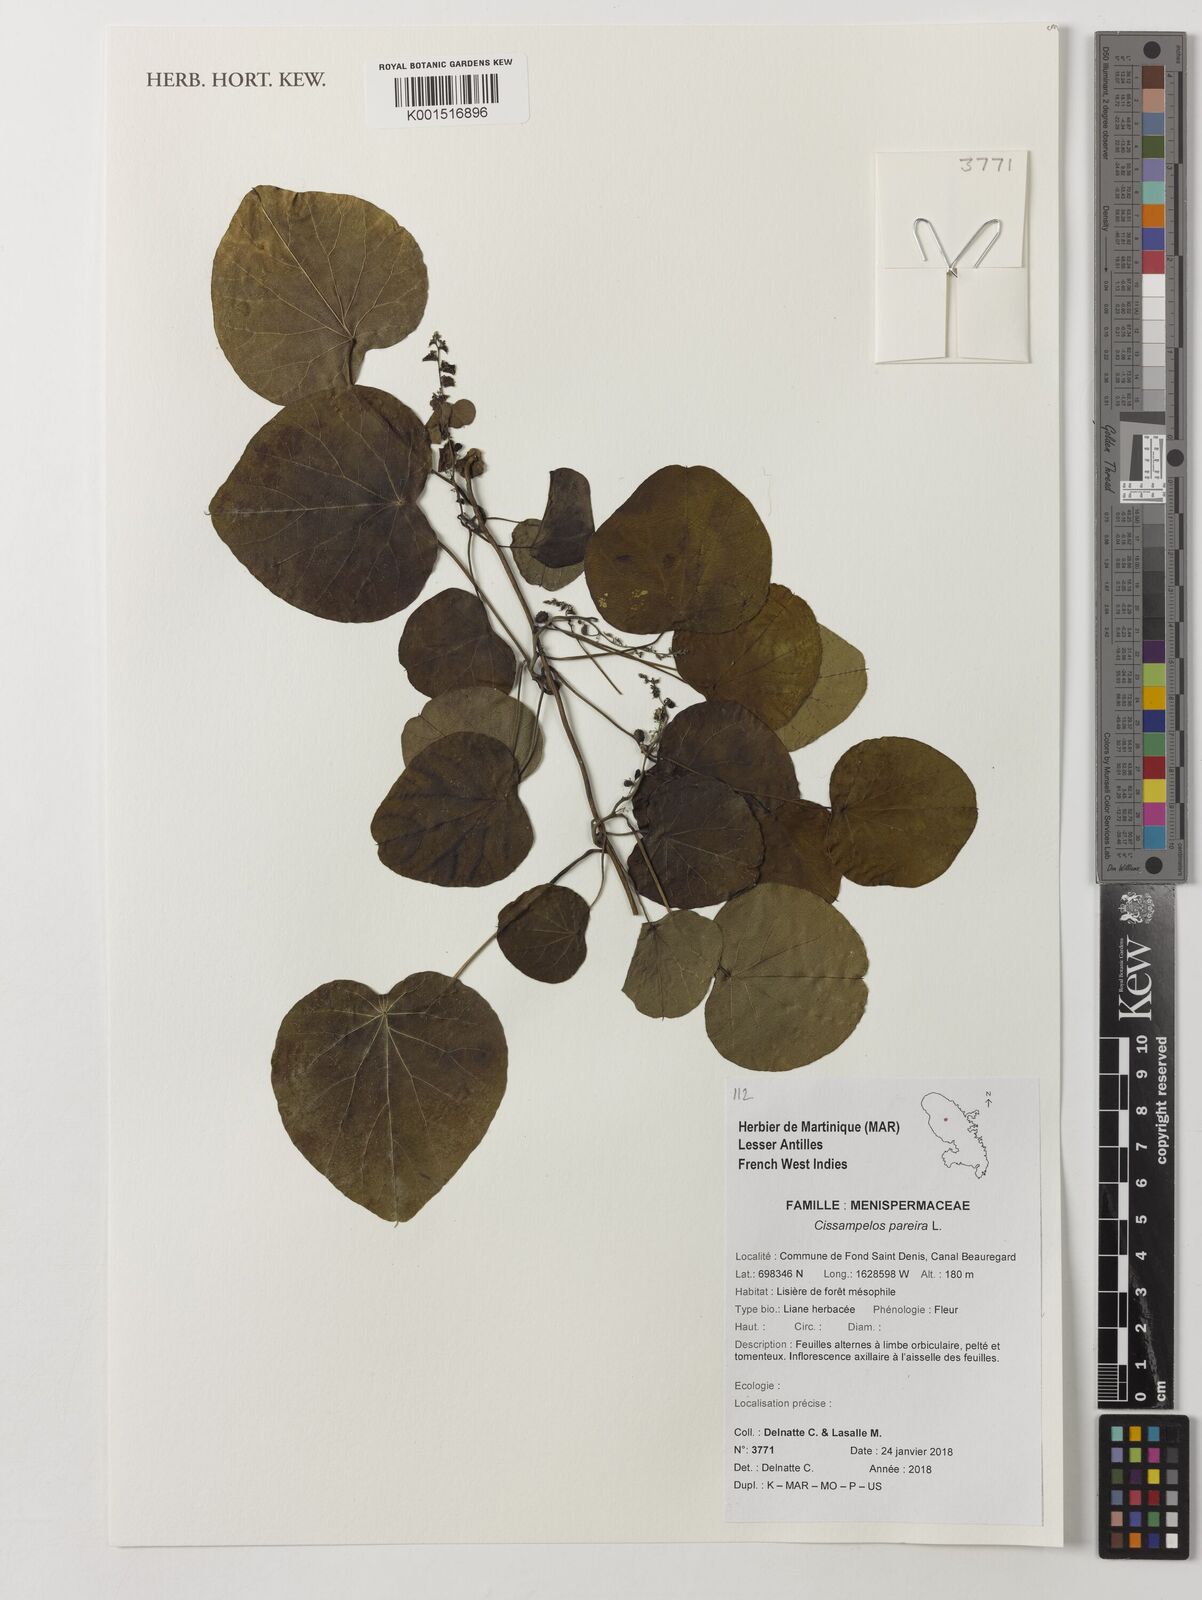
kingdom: Plantae
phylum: Tracheophyta
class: Magnoliopsida
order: Ranunculales
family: Menispermaceae
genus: Cissampelos
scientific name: Cissampelos pareira
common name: Velvetleaf
